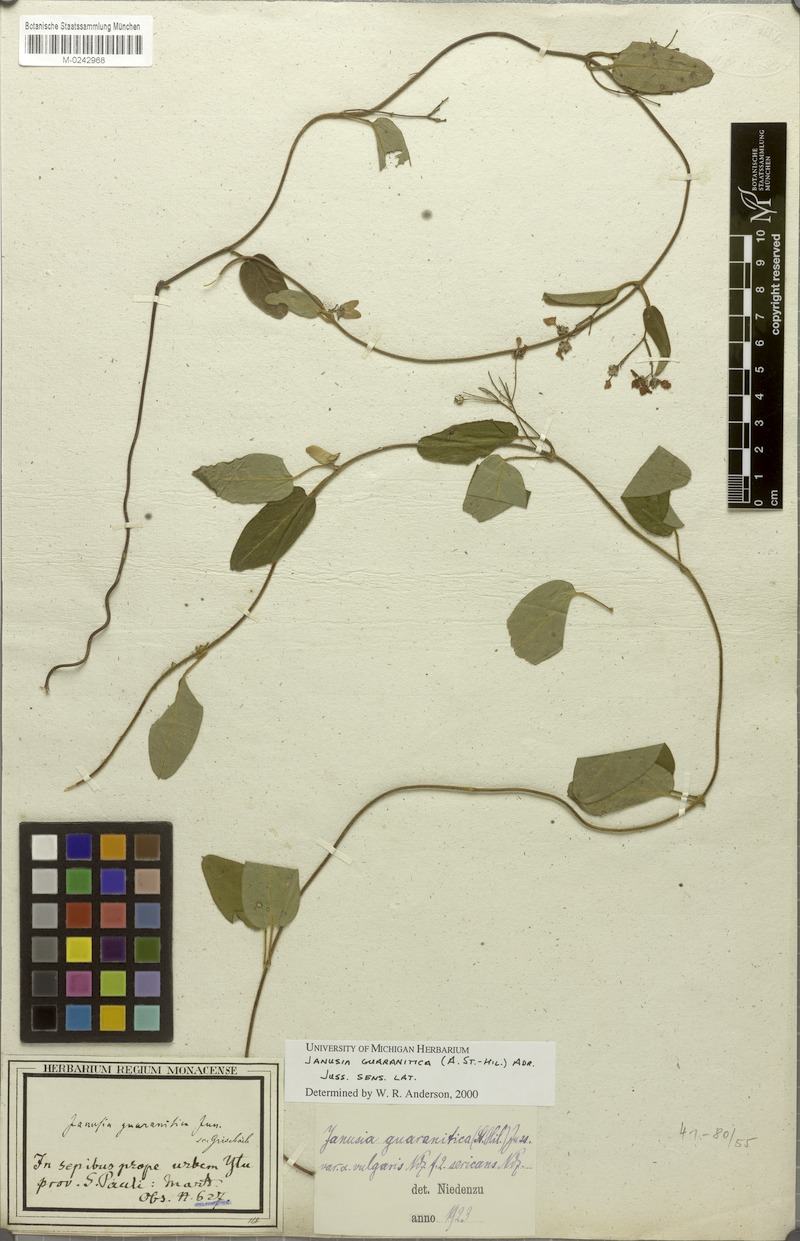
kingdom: Plantae
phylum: Tracheophyta
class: Magnoliopsida
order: Malpighiales
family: Malpighiaceae
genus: Janusia
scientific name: Janusia guaranitica
